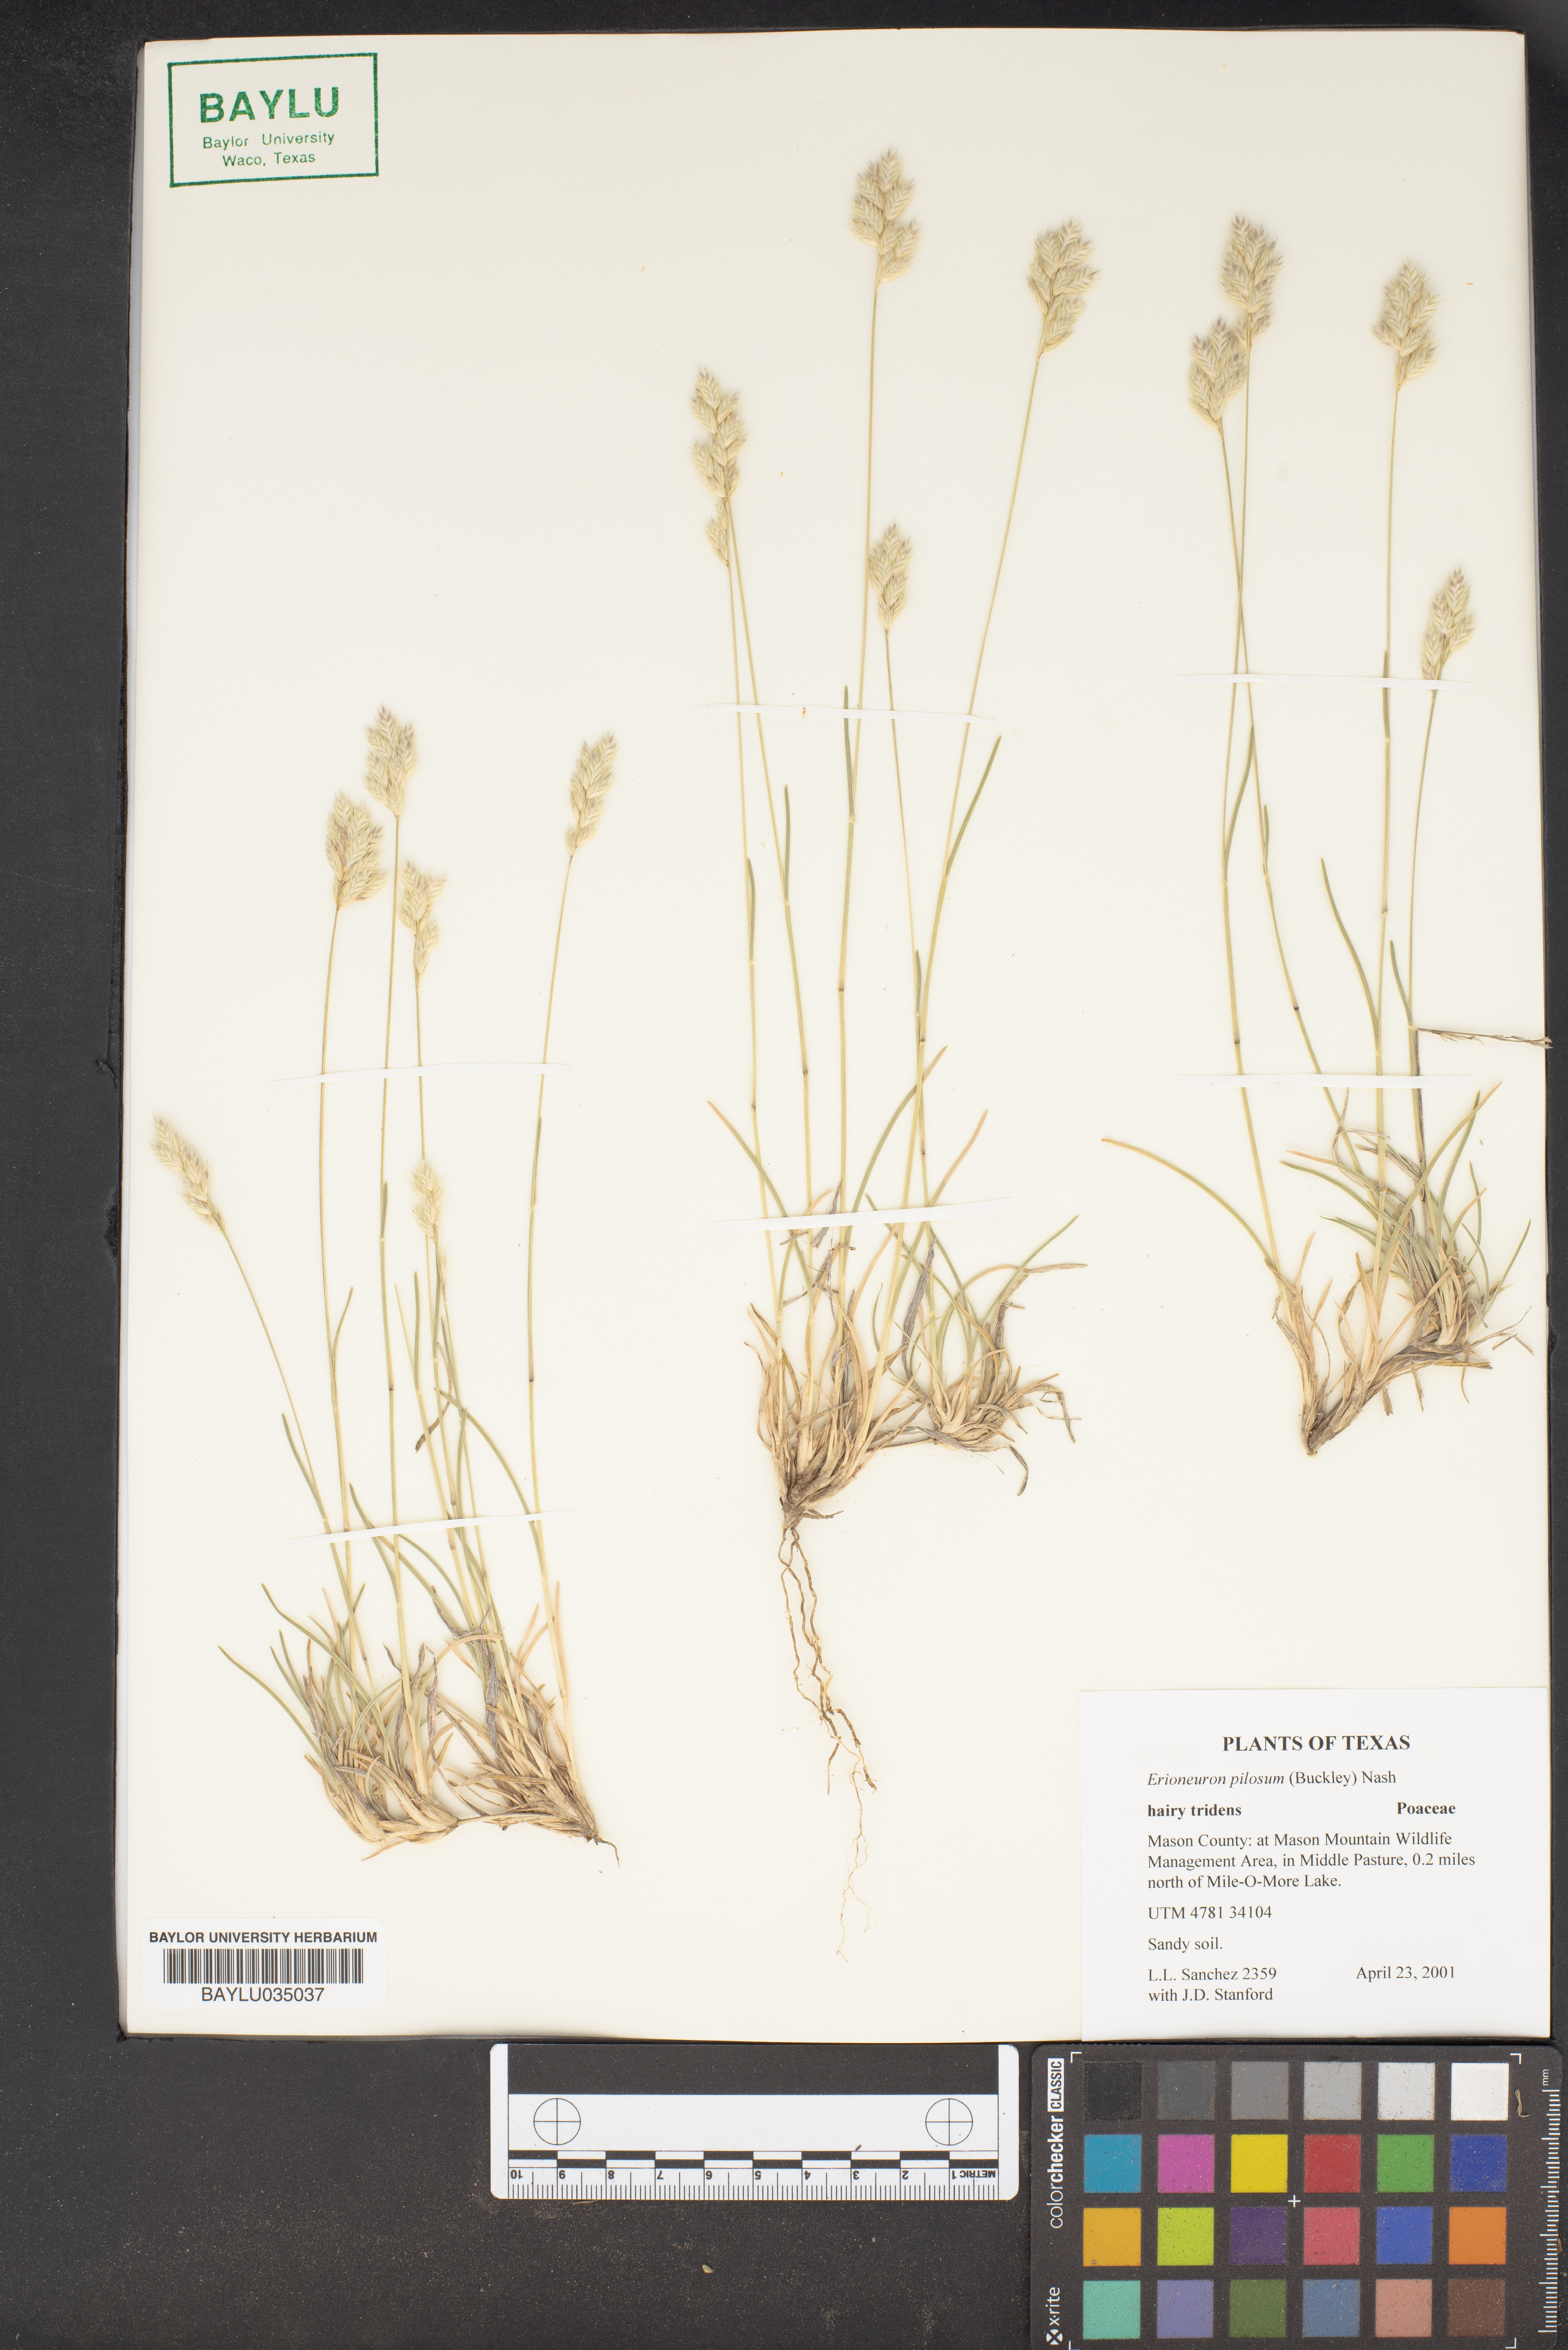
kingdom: Plantae
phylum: Tracheophyta
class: Liliopsida
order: Poales
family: Poaceae
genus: Erioneuron
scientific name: Erioneuron pilosum
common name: Hairy woolly grass
